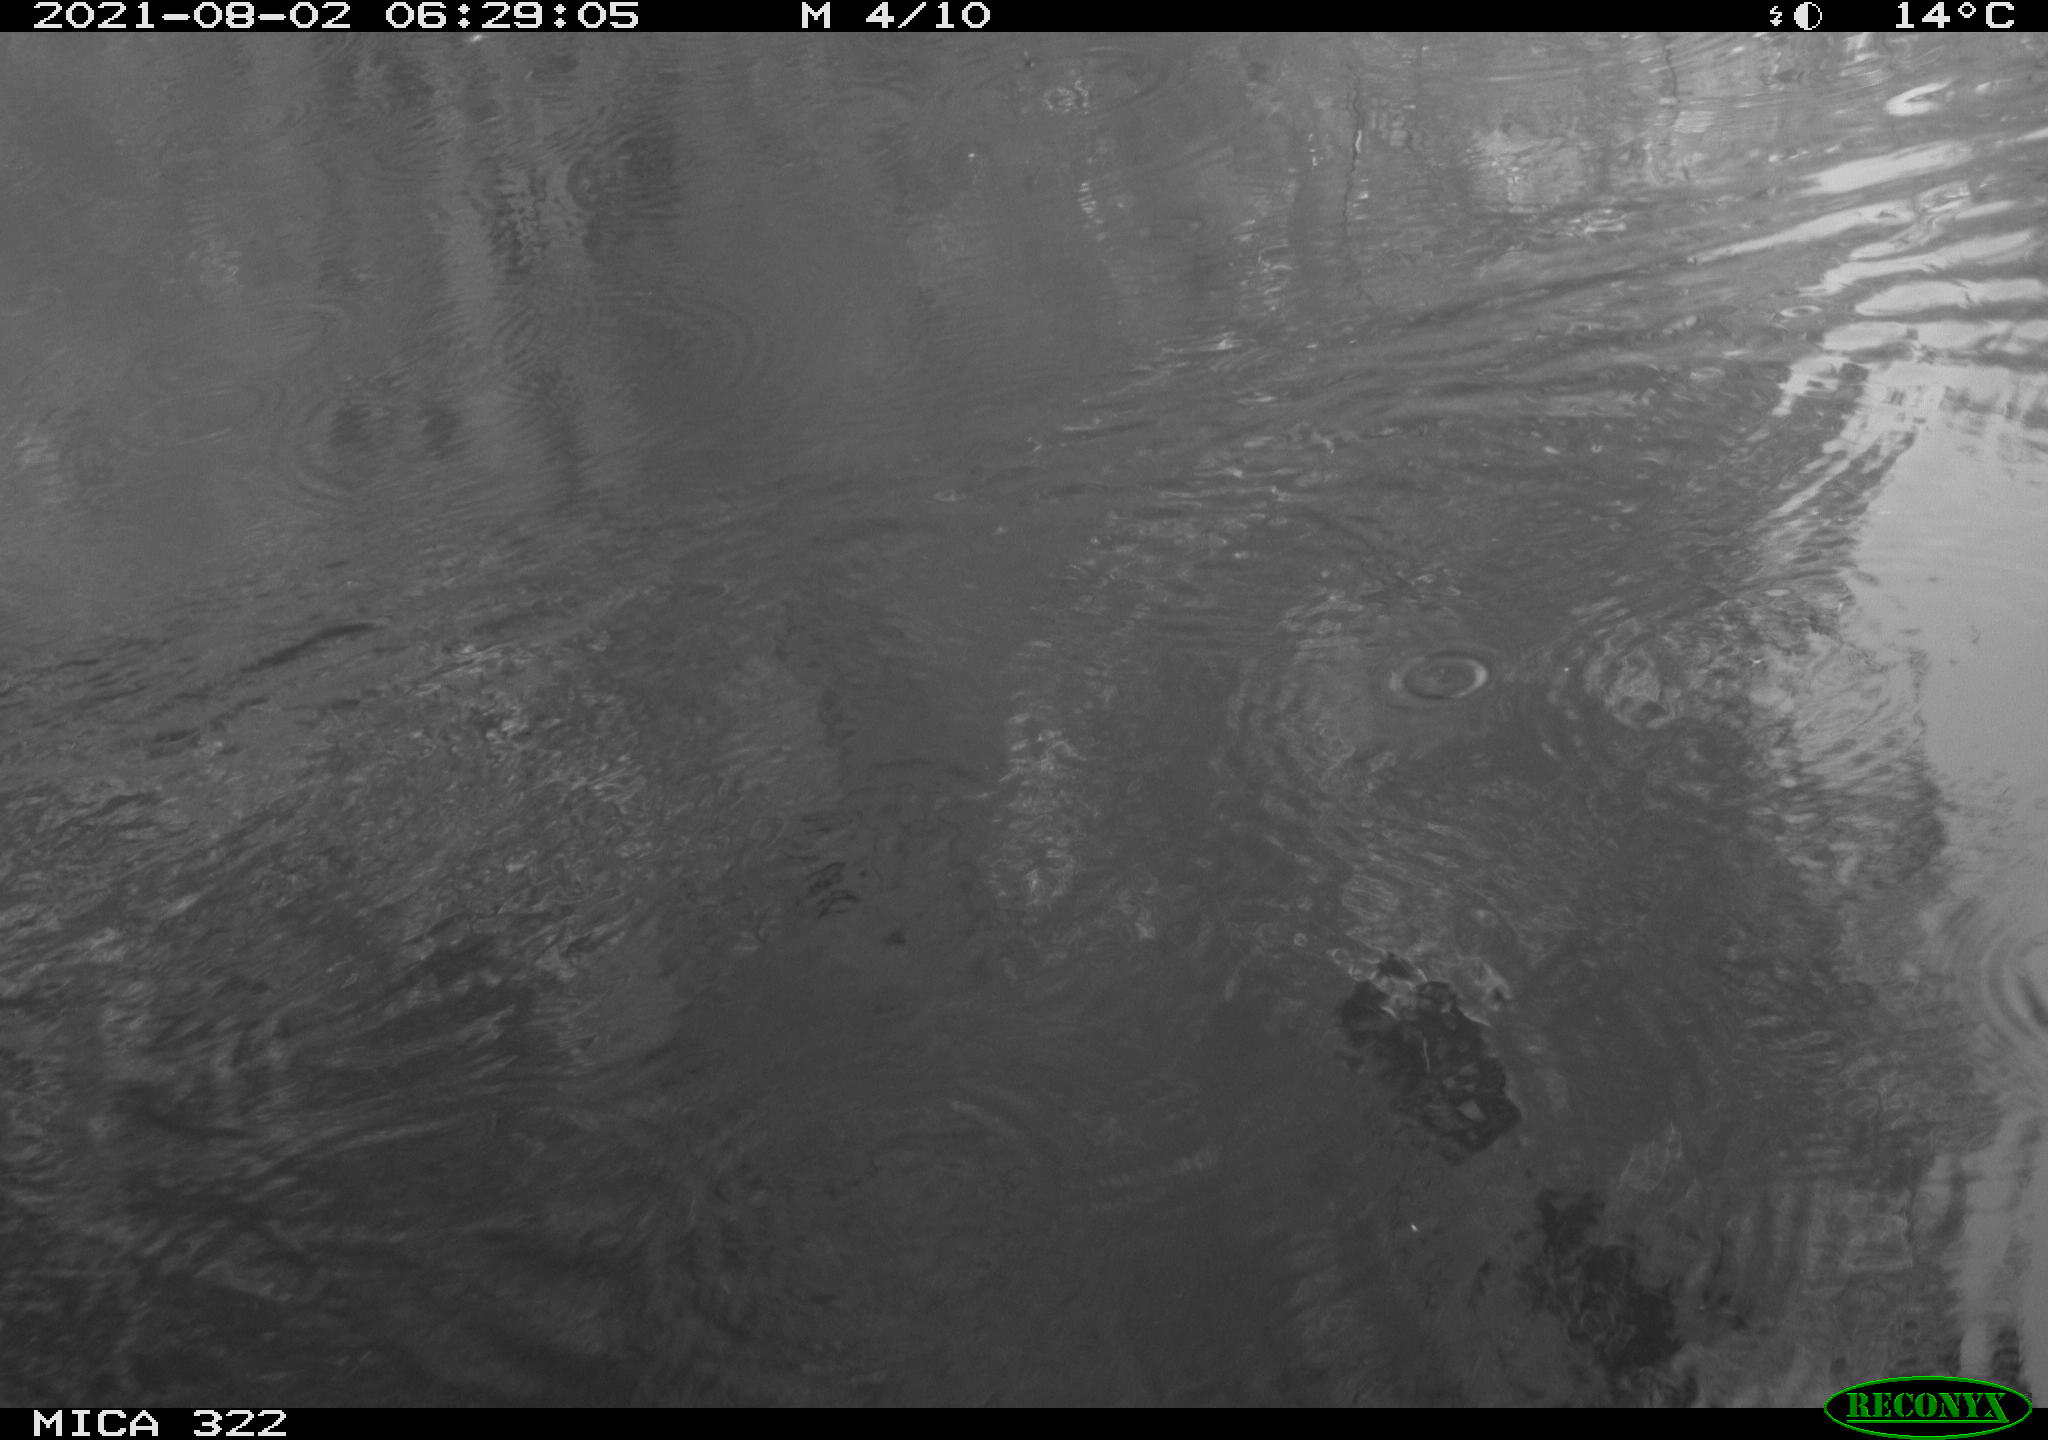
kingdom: Animalia
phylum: Chordata
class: Aves
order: Gruiformes
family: Rallidae
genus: Gallinula
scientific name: Gallinula chloropus
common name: Common moorhen
